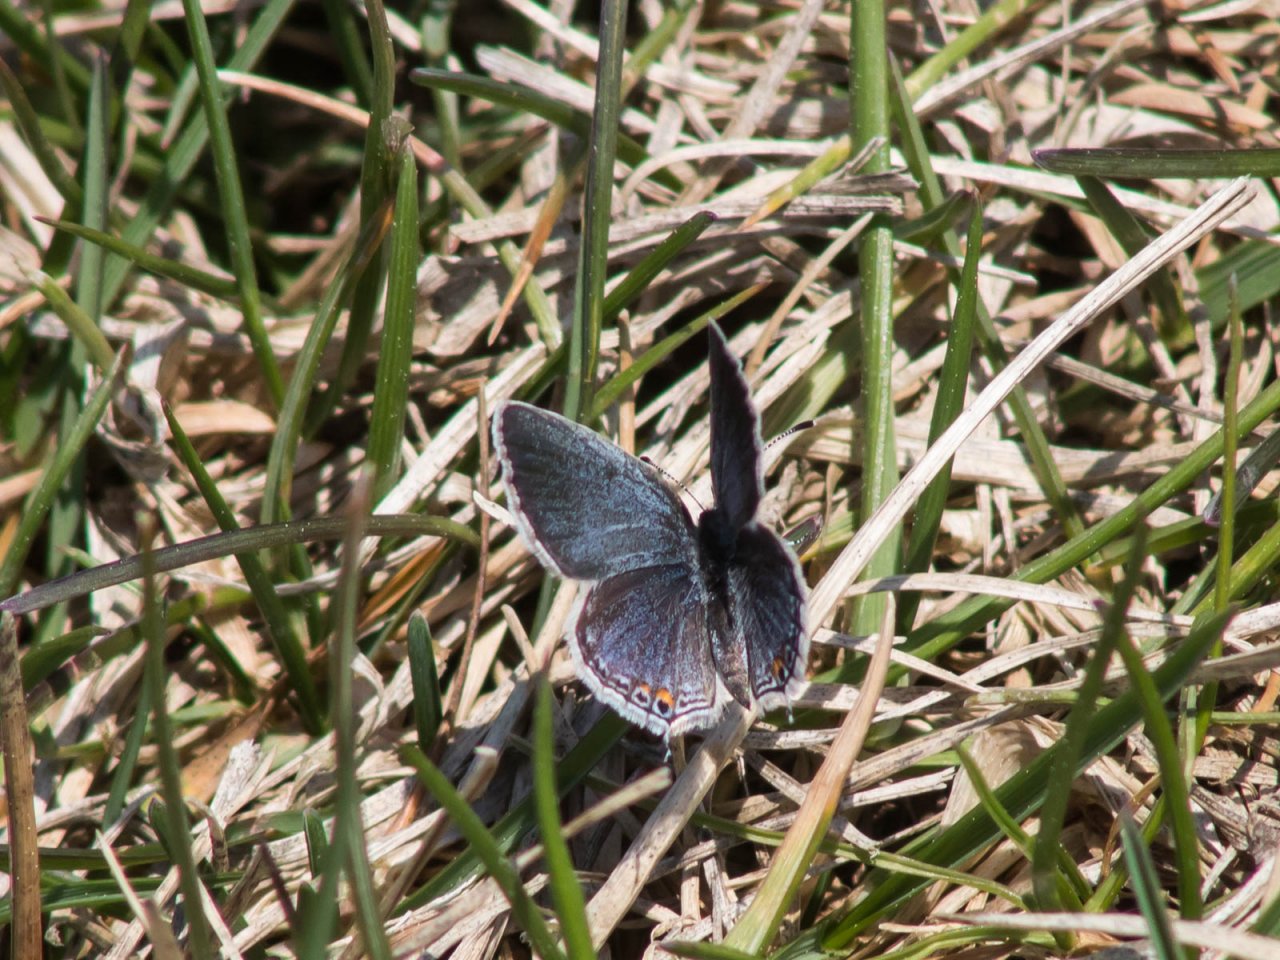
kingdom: Animalia
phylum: Arthropoda
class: Insecta
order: Lepidoptera
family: Lycaenidae
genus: Elkalyce
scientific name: Elkalyce comyntas
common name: Eastern Tailed-Blue
